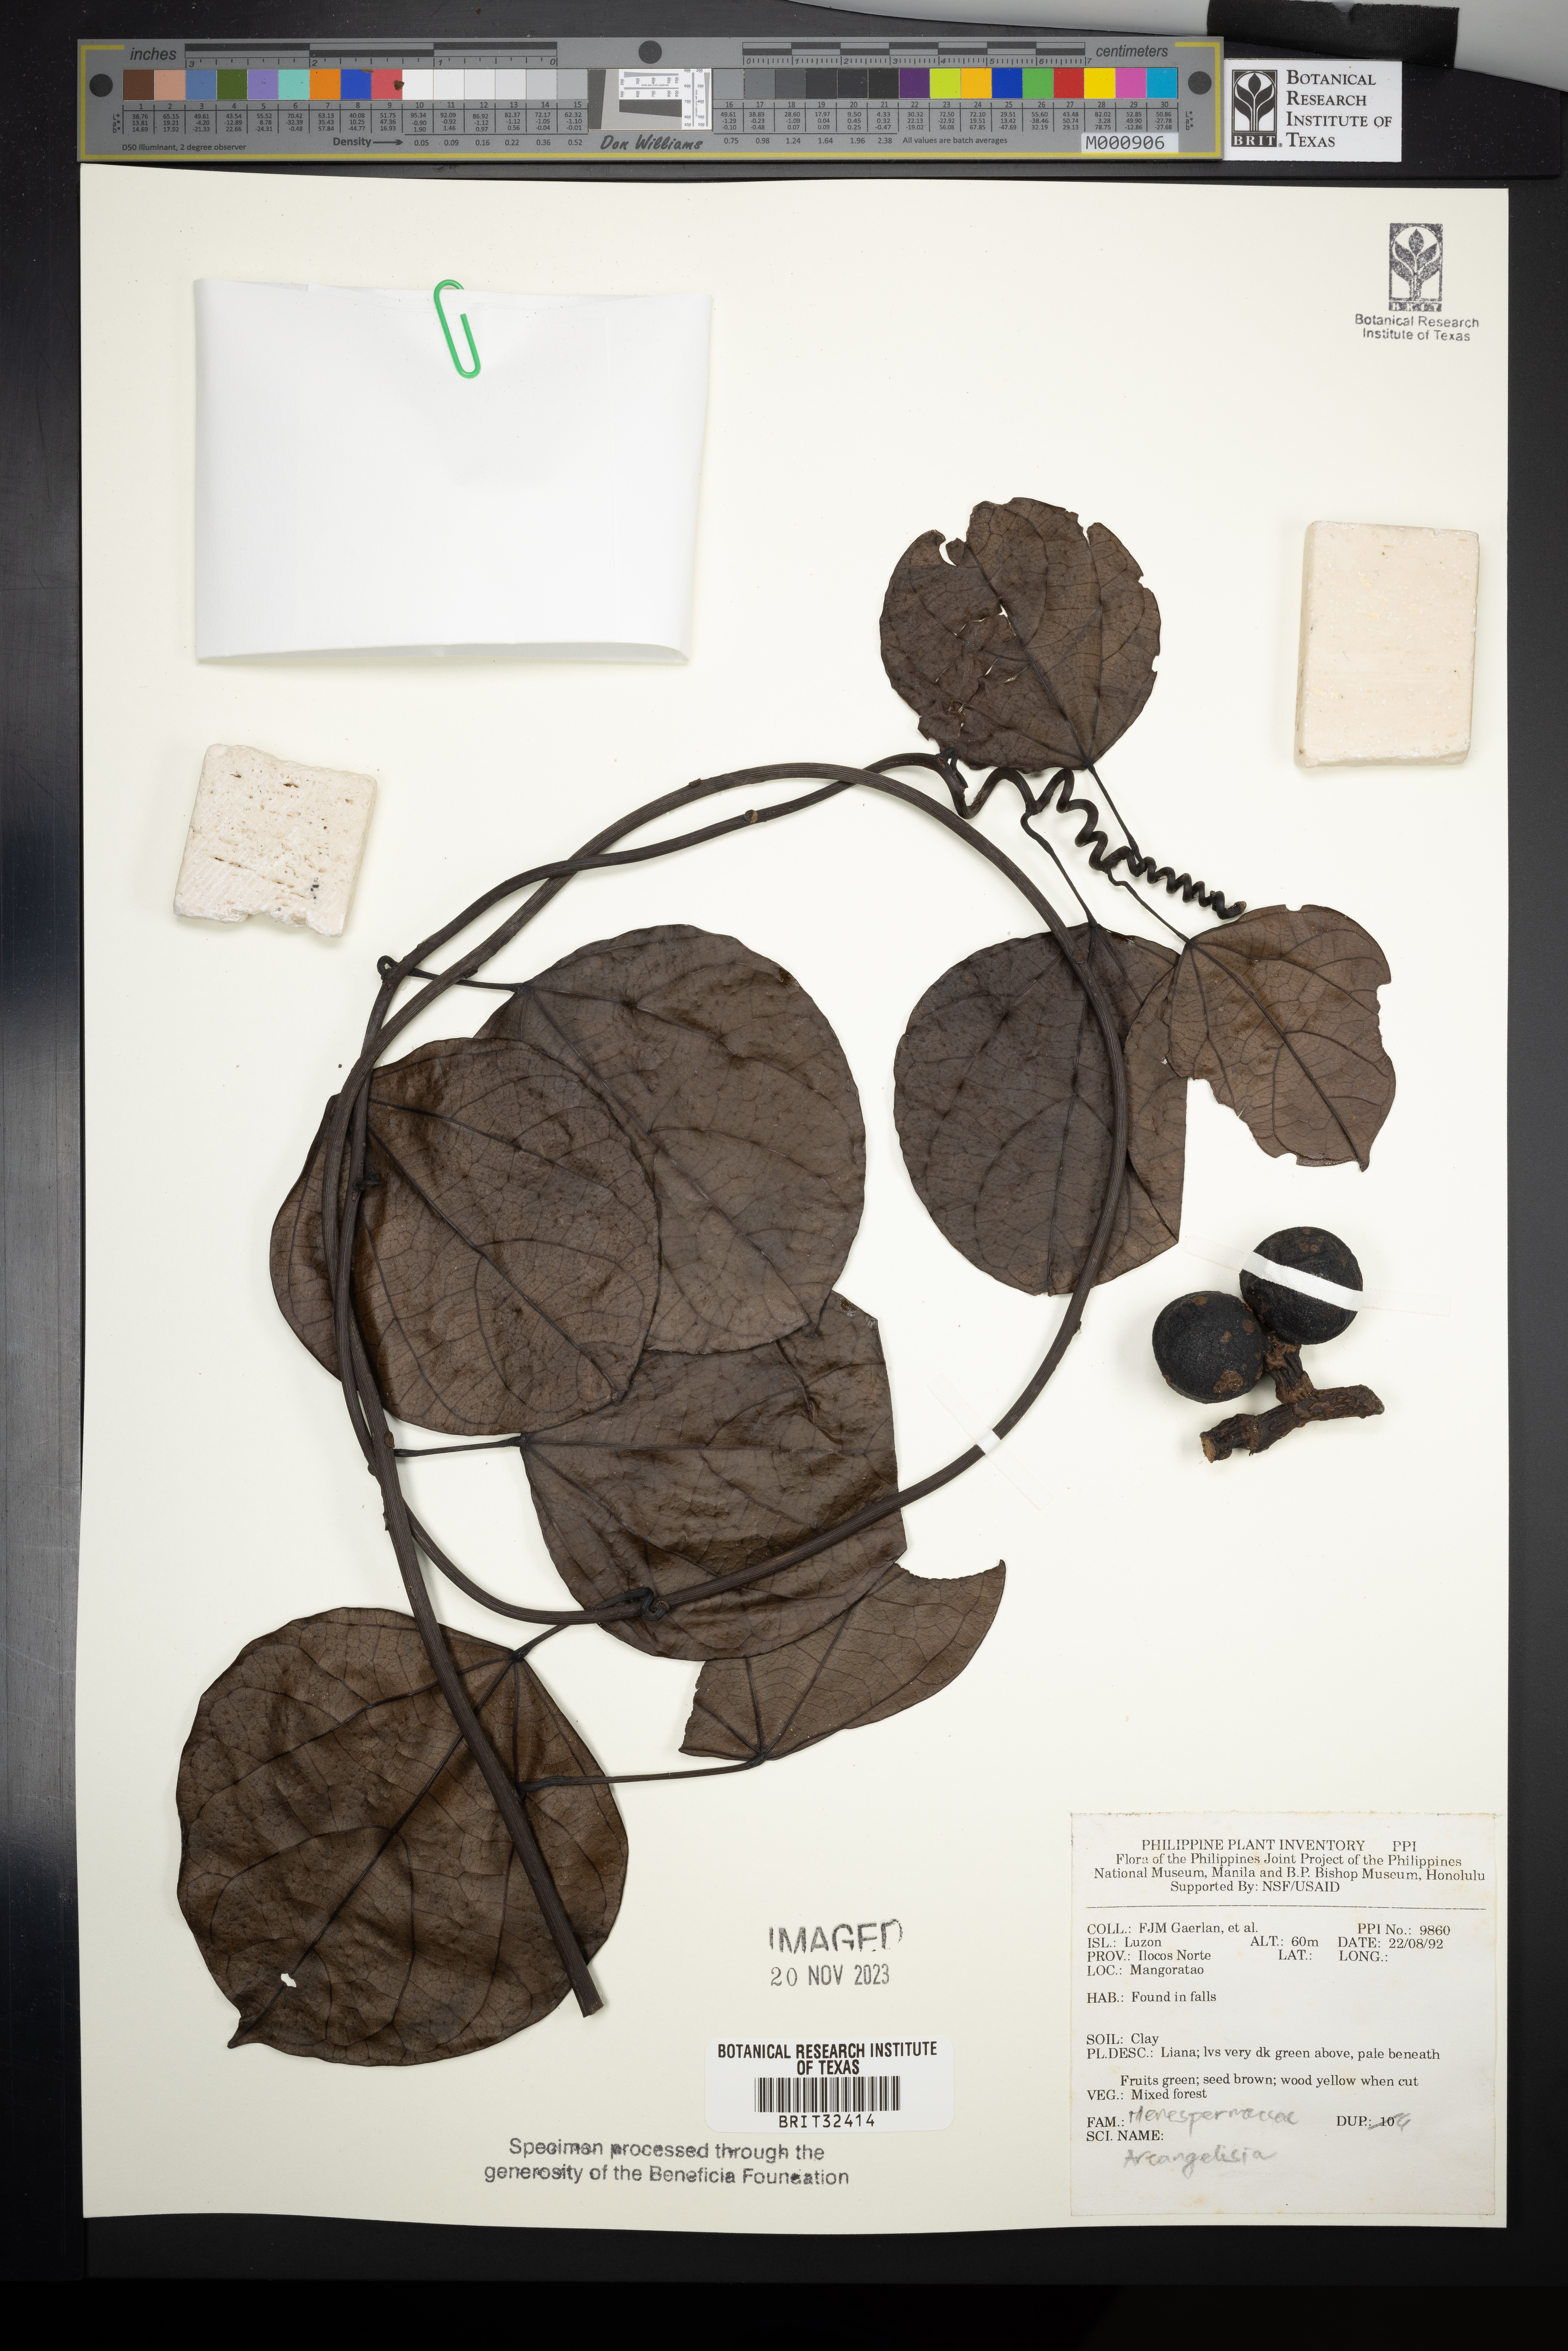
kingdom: Plantae
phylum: Tracheophyta
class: Magnoliopsida
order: Ranunculales
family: Menispermaceae
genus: Arcangelisia
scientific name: Arcangelisia
